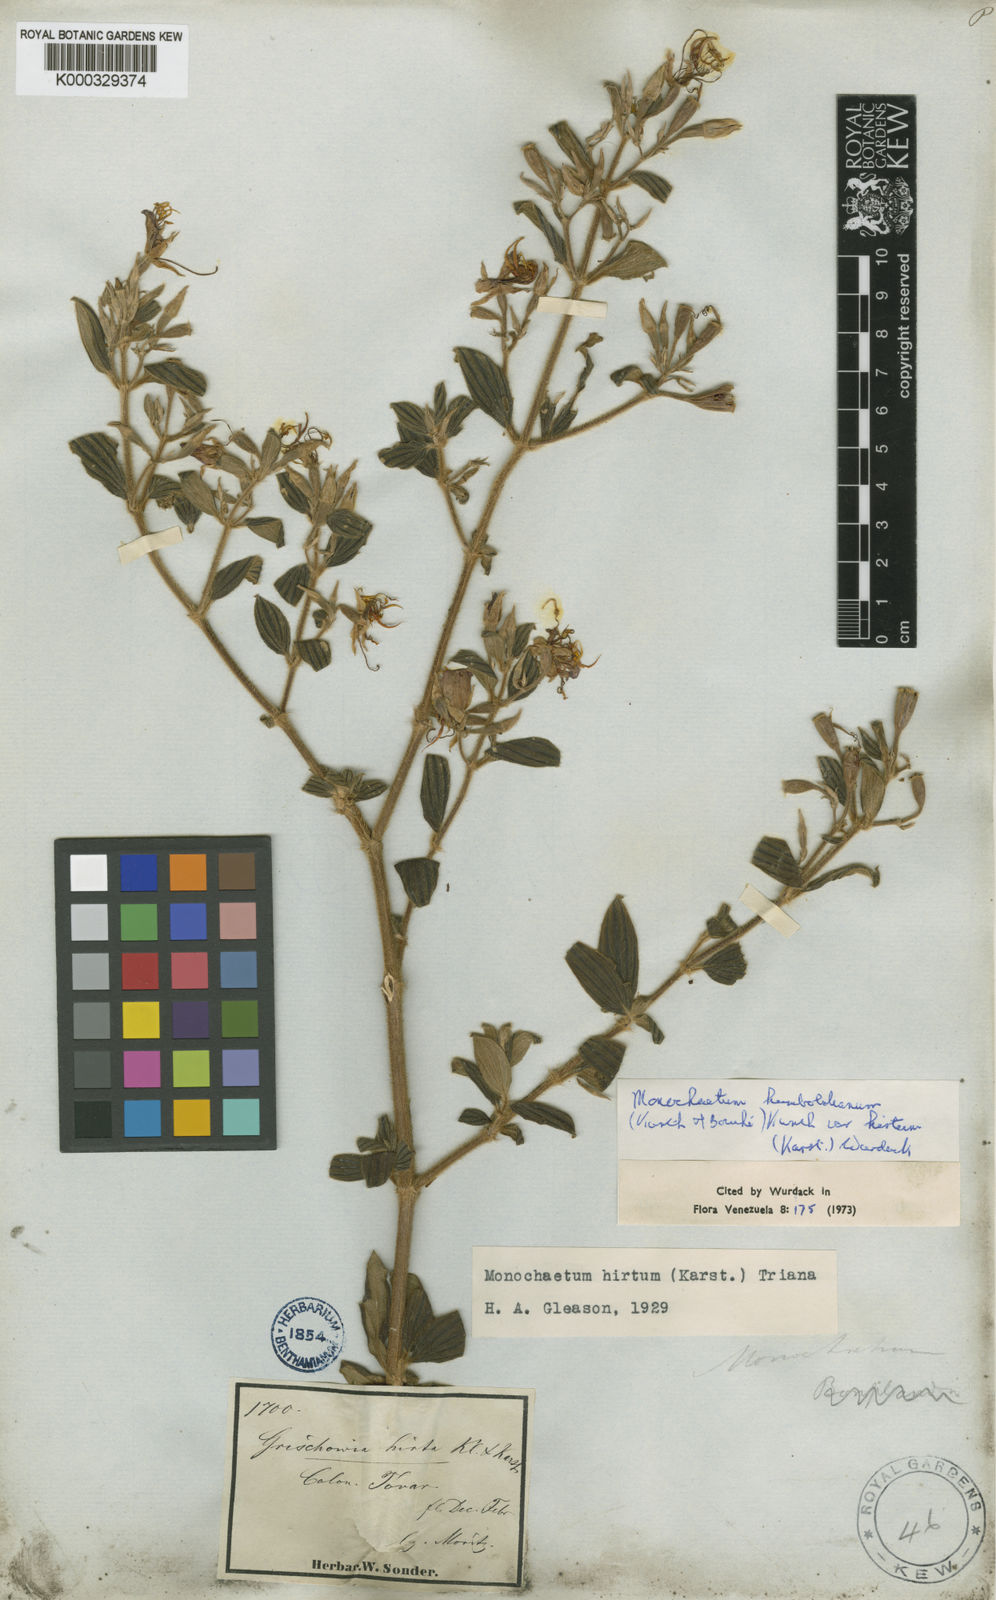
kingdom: Plantae
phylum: Tracheophyta
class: Magnoliopsida
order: Myrtales
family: Melastomataceae
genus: Monochaetum
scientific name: Monochaetum
